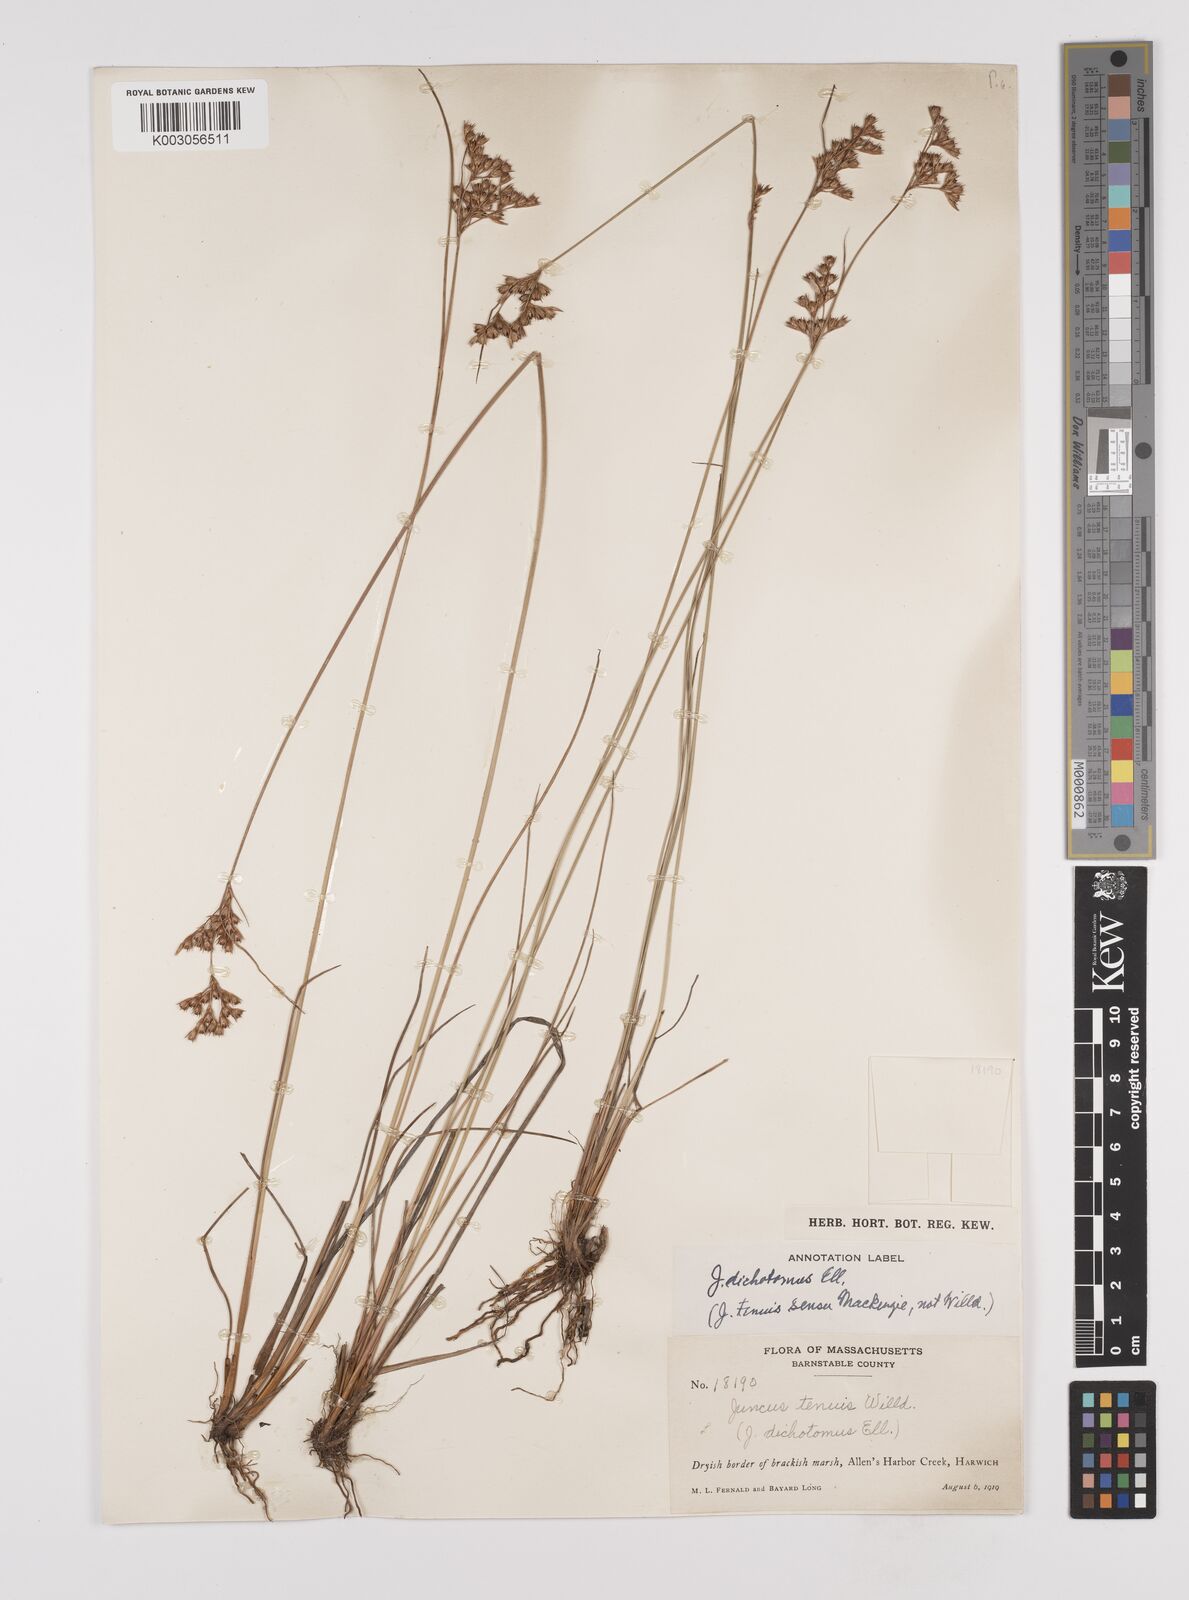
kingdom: Plantae
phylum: Tracheophyta
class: Liliopsida
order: Poales
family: Juncaceae
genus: Juncus
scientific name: Juncus dichotomus
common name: Forked rush
